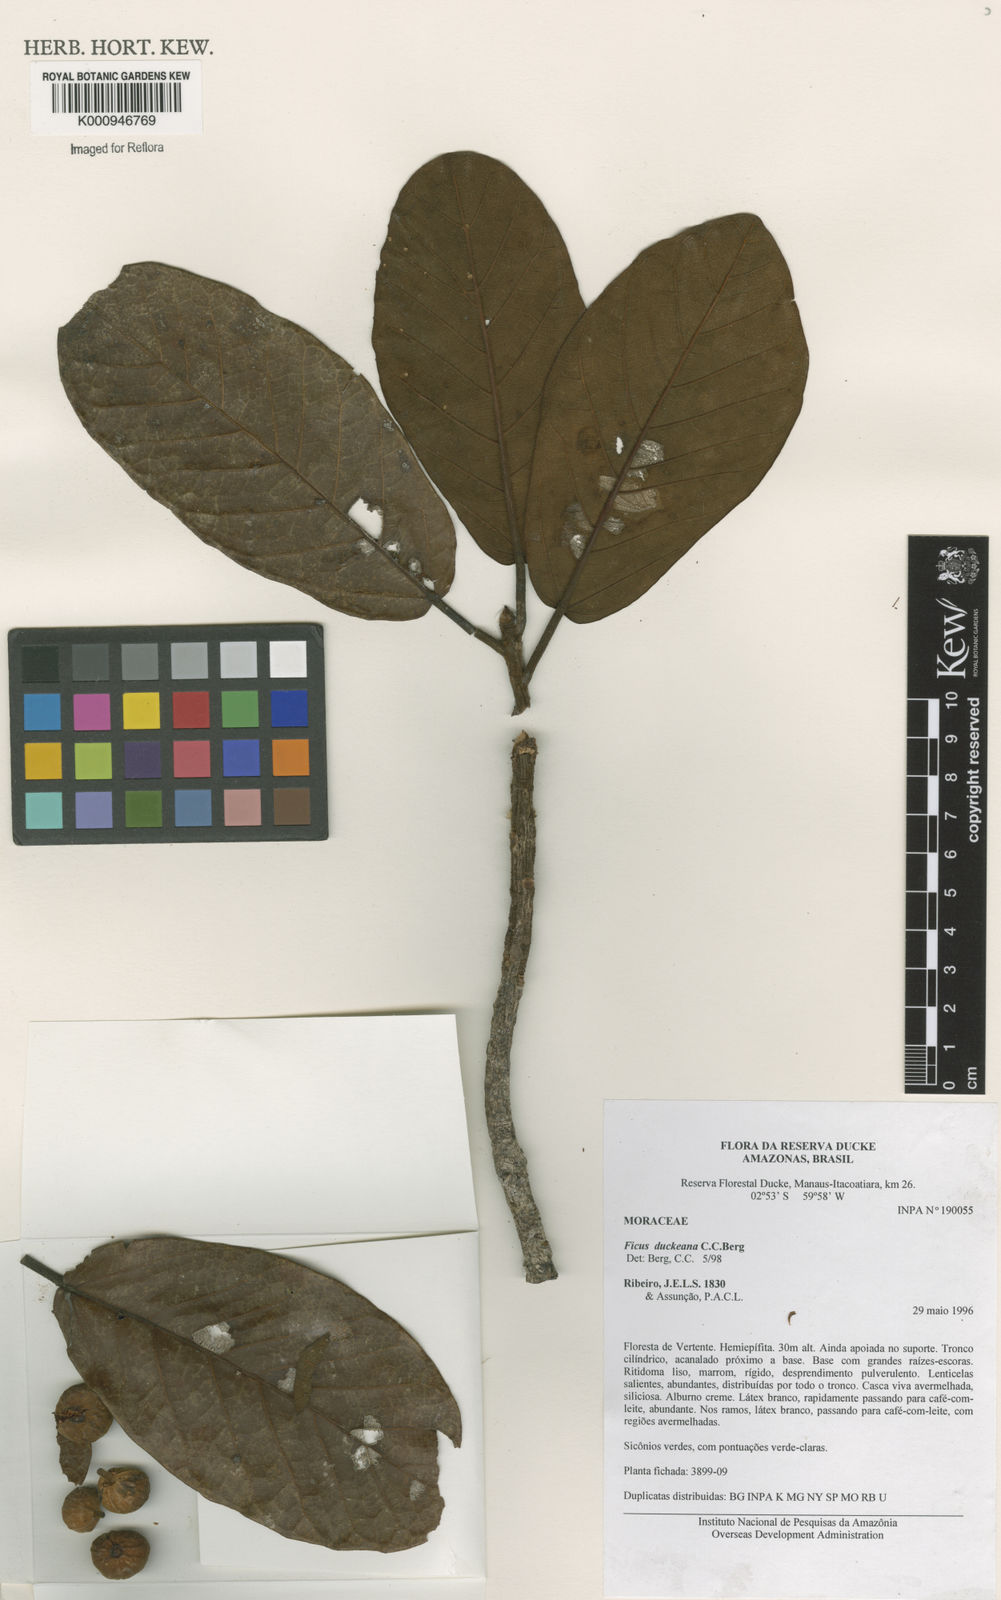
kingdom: Plantae
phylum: Tracheophyta
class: Magnoliopsida
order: Rosales
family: Moraceae
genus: Ficus
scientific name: Ficus duckeana
